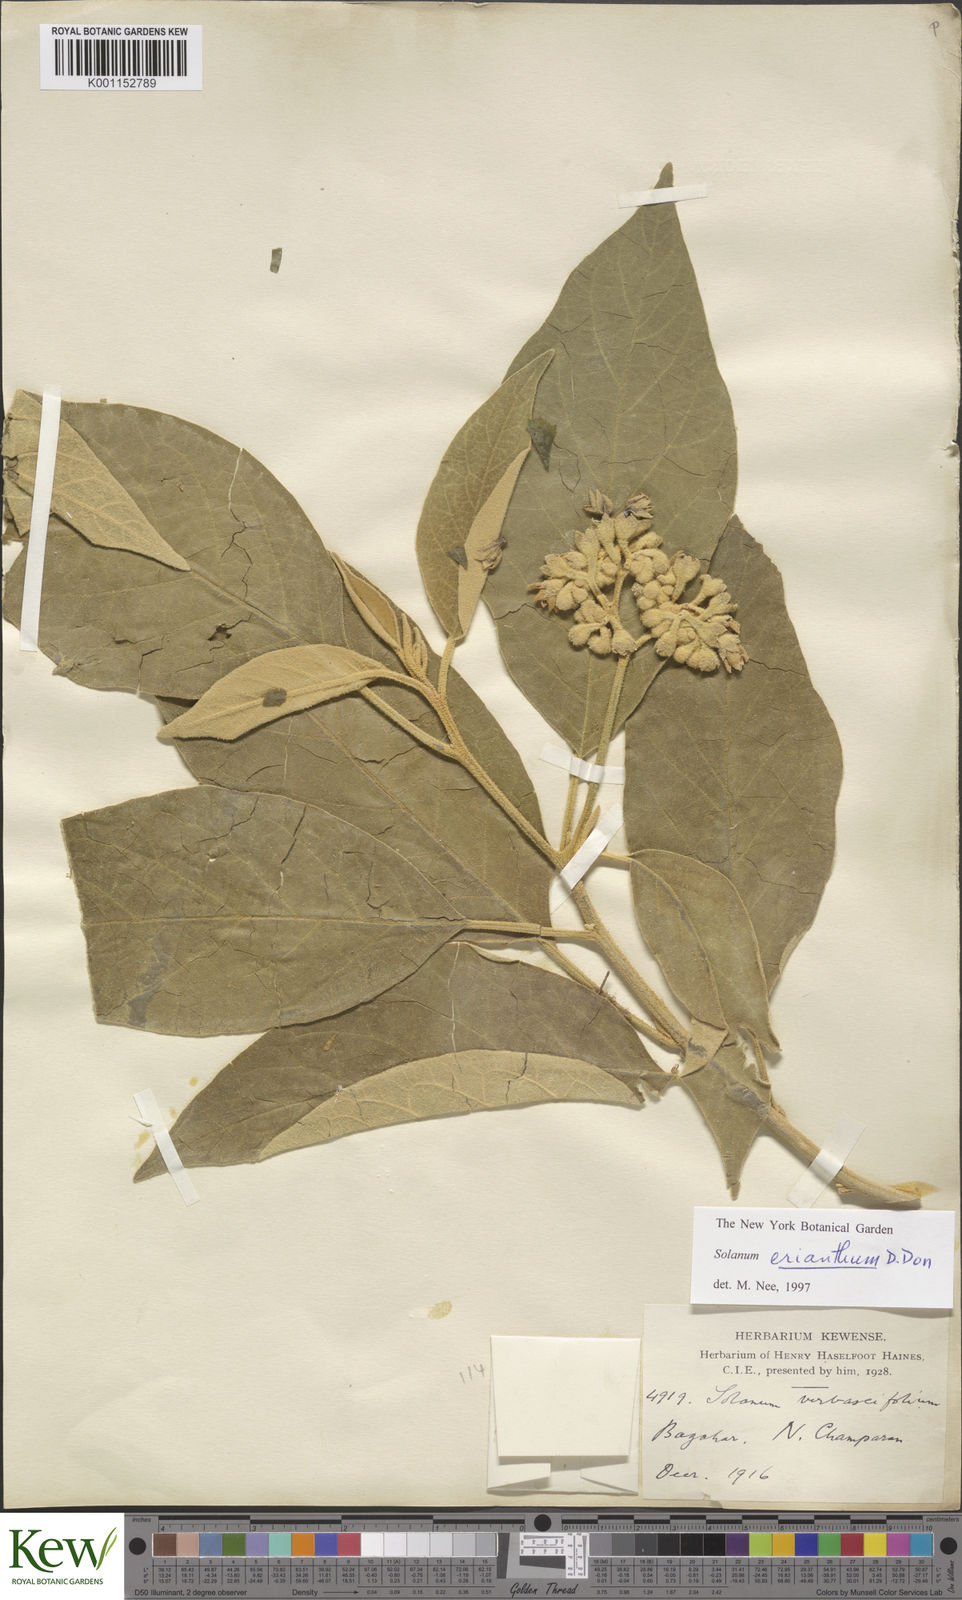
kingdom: Plantae
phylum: Tracheophyta
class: Magnoliopsida
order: Solanales
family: Solanaceae
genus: Solanum
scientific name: Solanum erianthum
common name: Tobacco-tree
